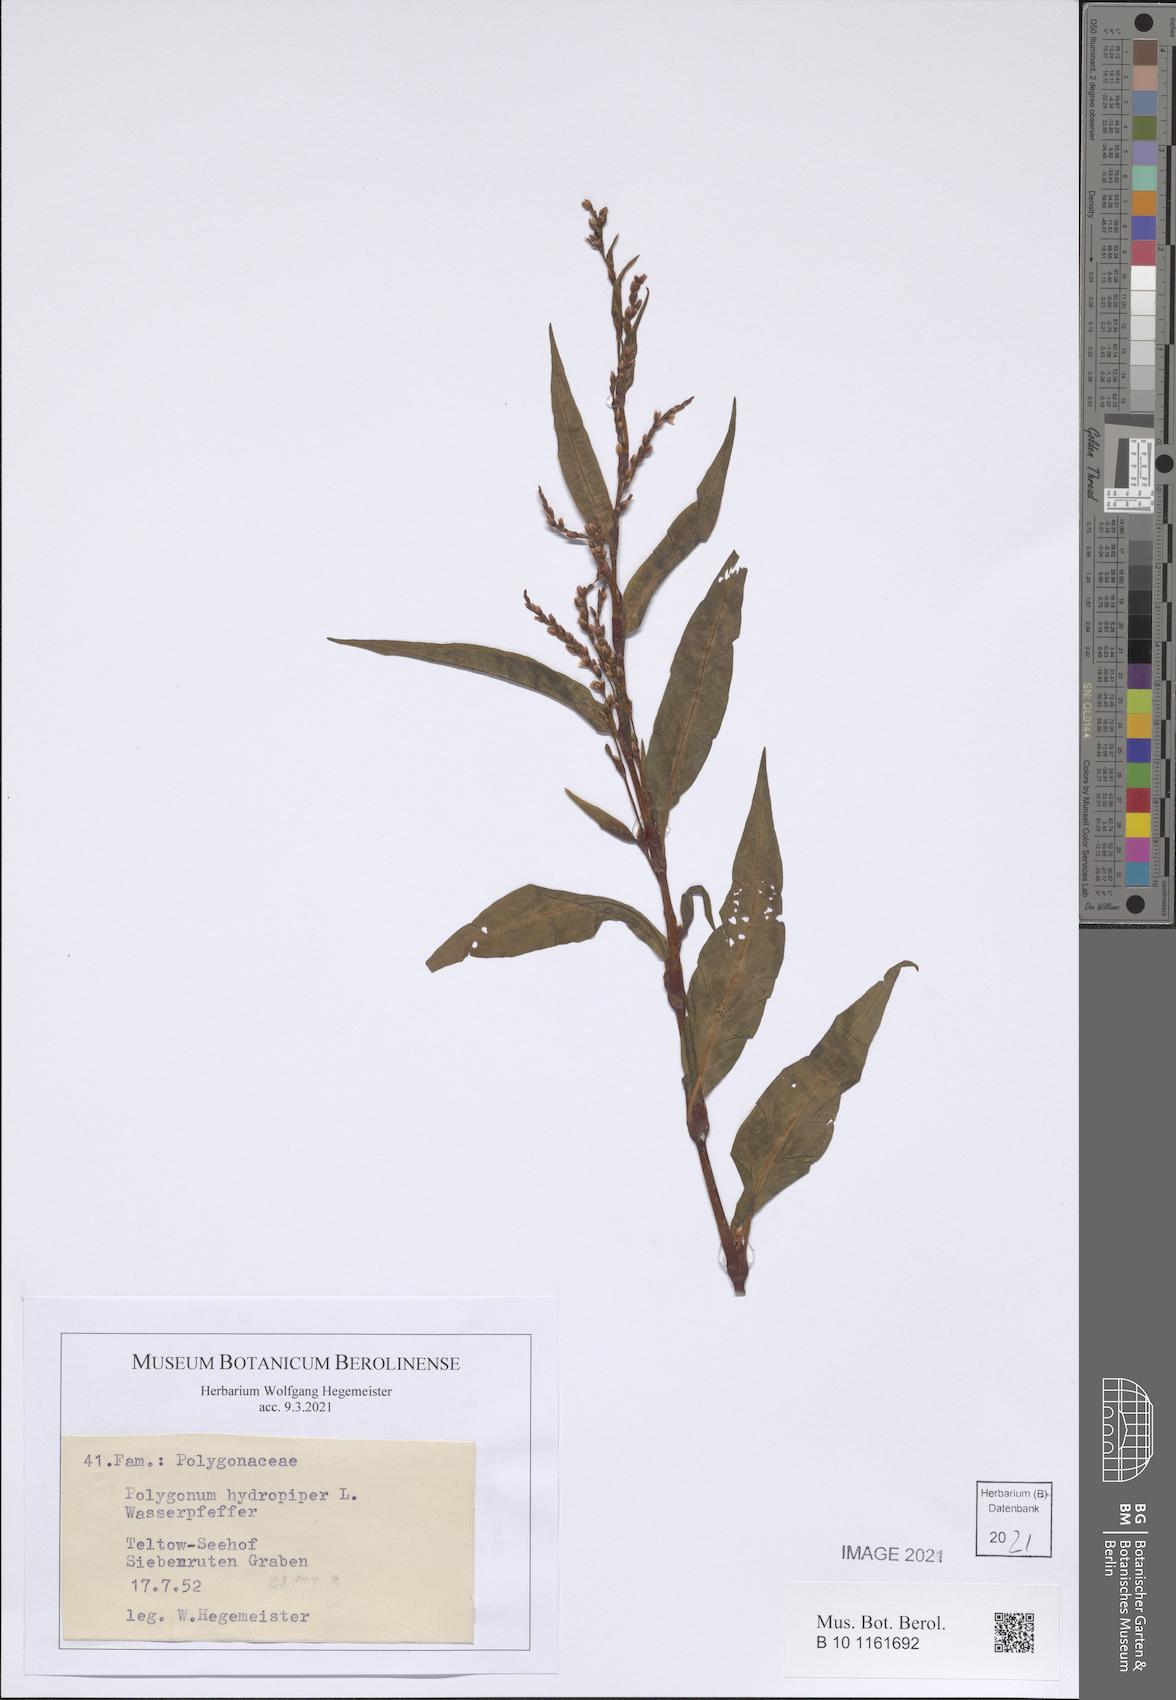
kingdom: Plantae
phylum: Tracheophyta
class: Magnoliopsida
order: Caryophyllales
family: Polygonaceae
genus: Persicaria
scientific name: Persicaria hydropiper
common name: Water-pepper
